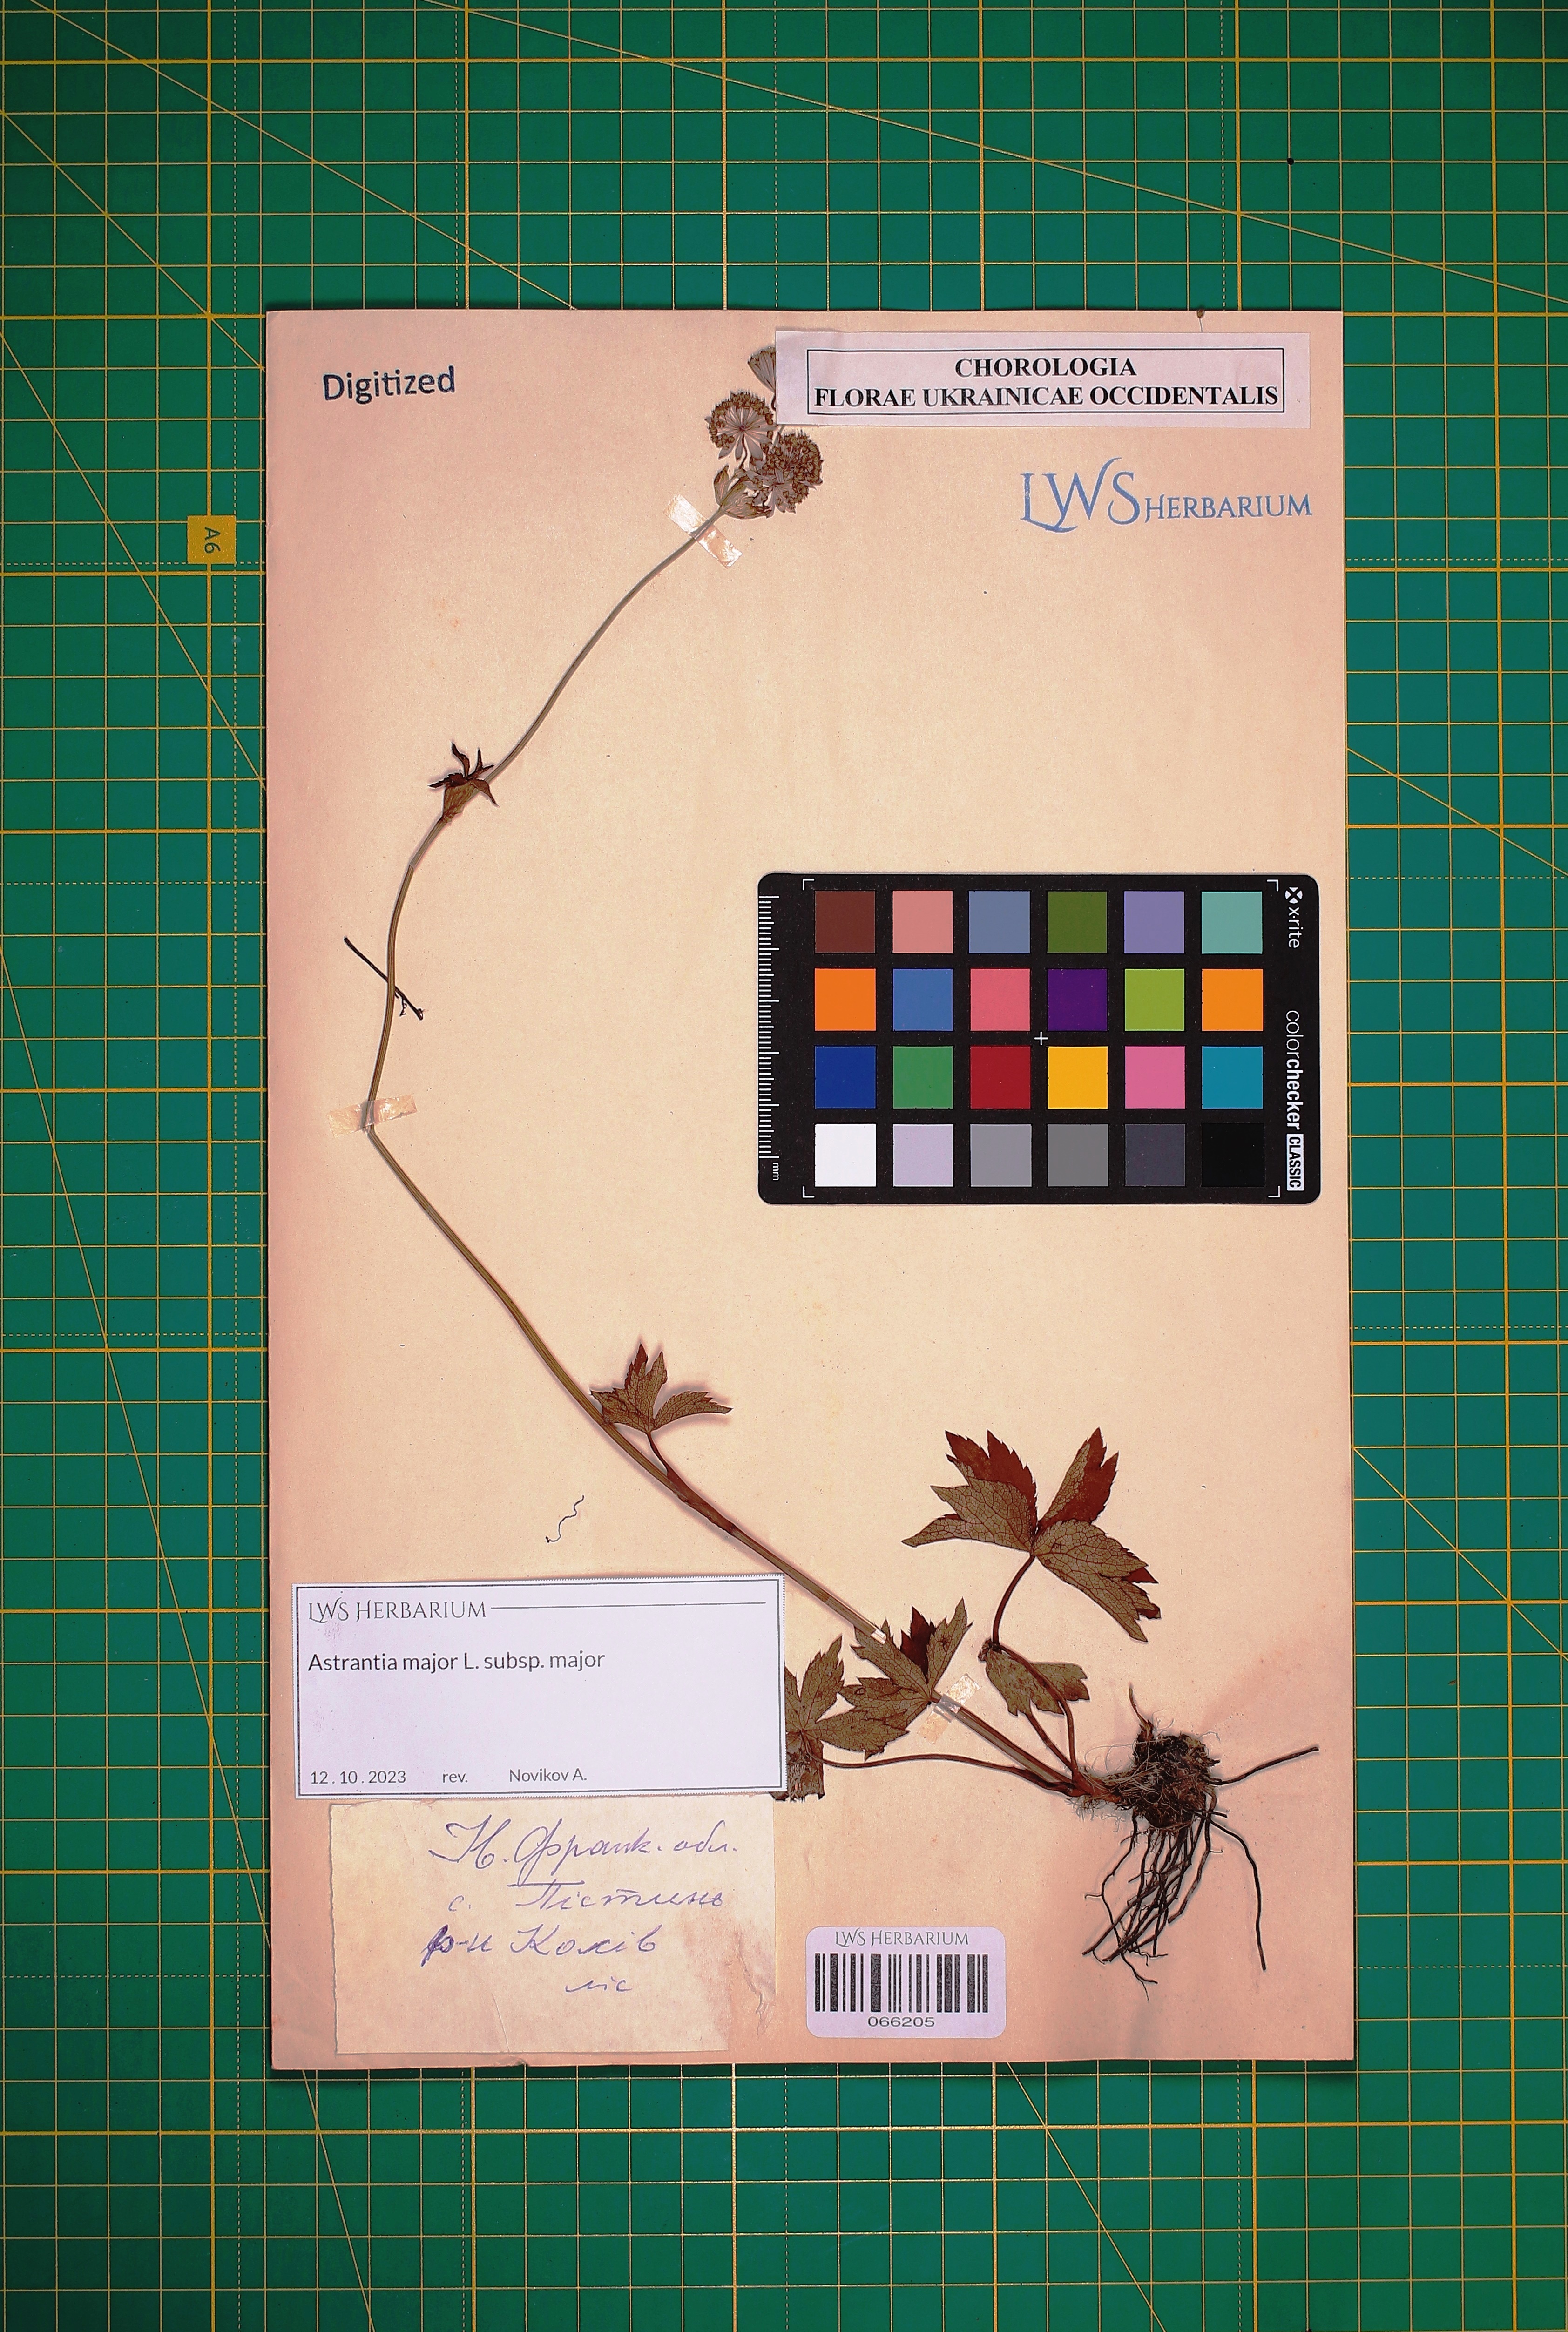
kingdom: Plantae
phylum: Tracheophyta
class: Magnoliopsida
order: Apiales
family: Apiaceae
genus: Astrantia
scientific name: Astrantia major
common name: Greater masterwort
